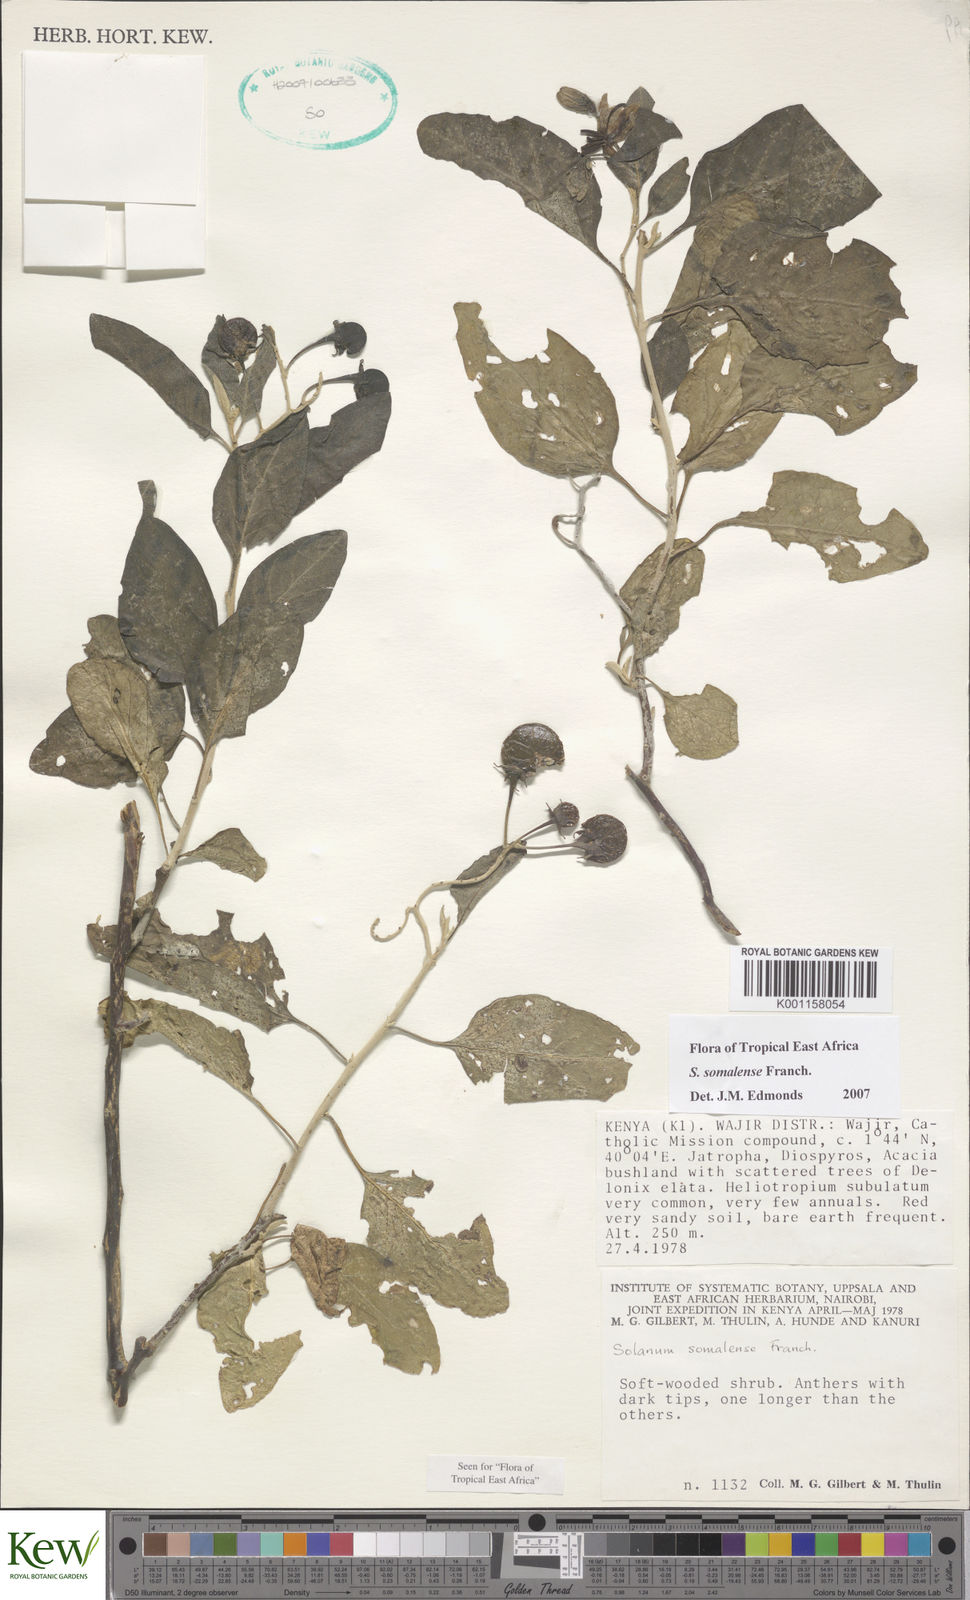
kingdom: Plantae
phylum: Tracheophyta
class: Magnoliopsida
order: Solanales
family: Solanaceae
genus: Solanum
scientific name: Solanum somalense
